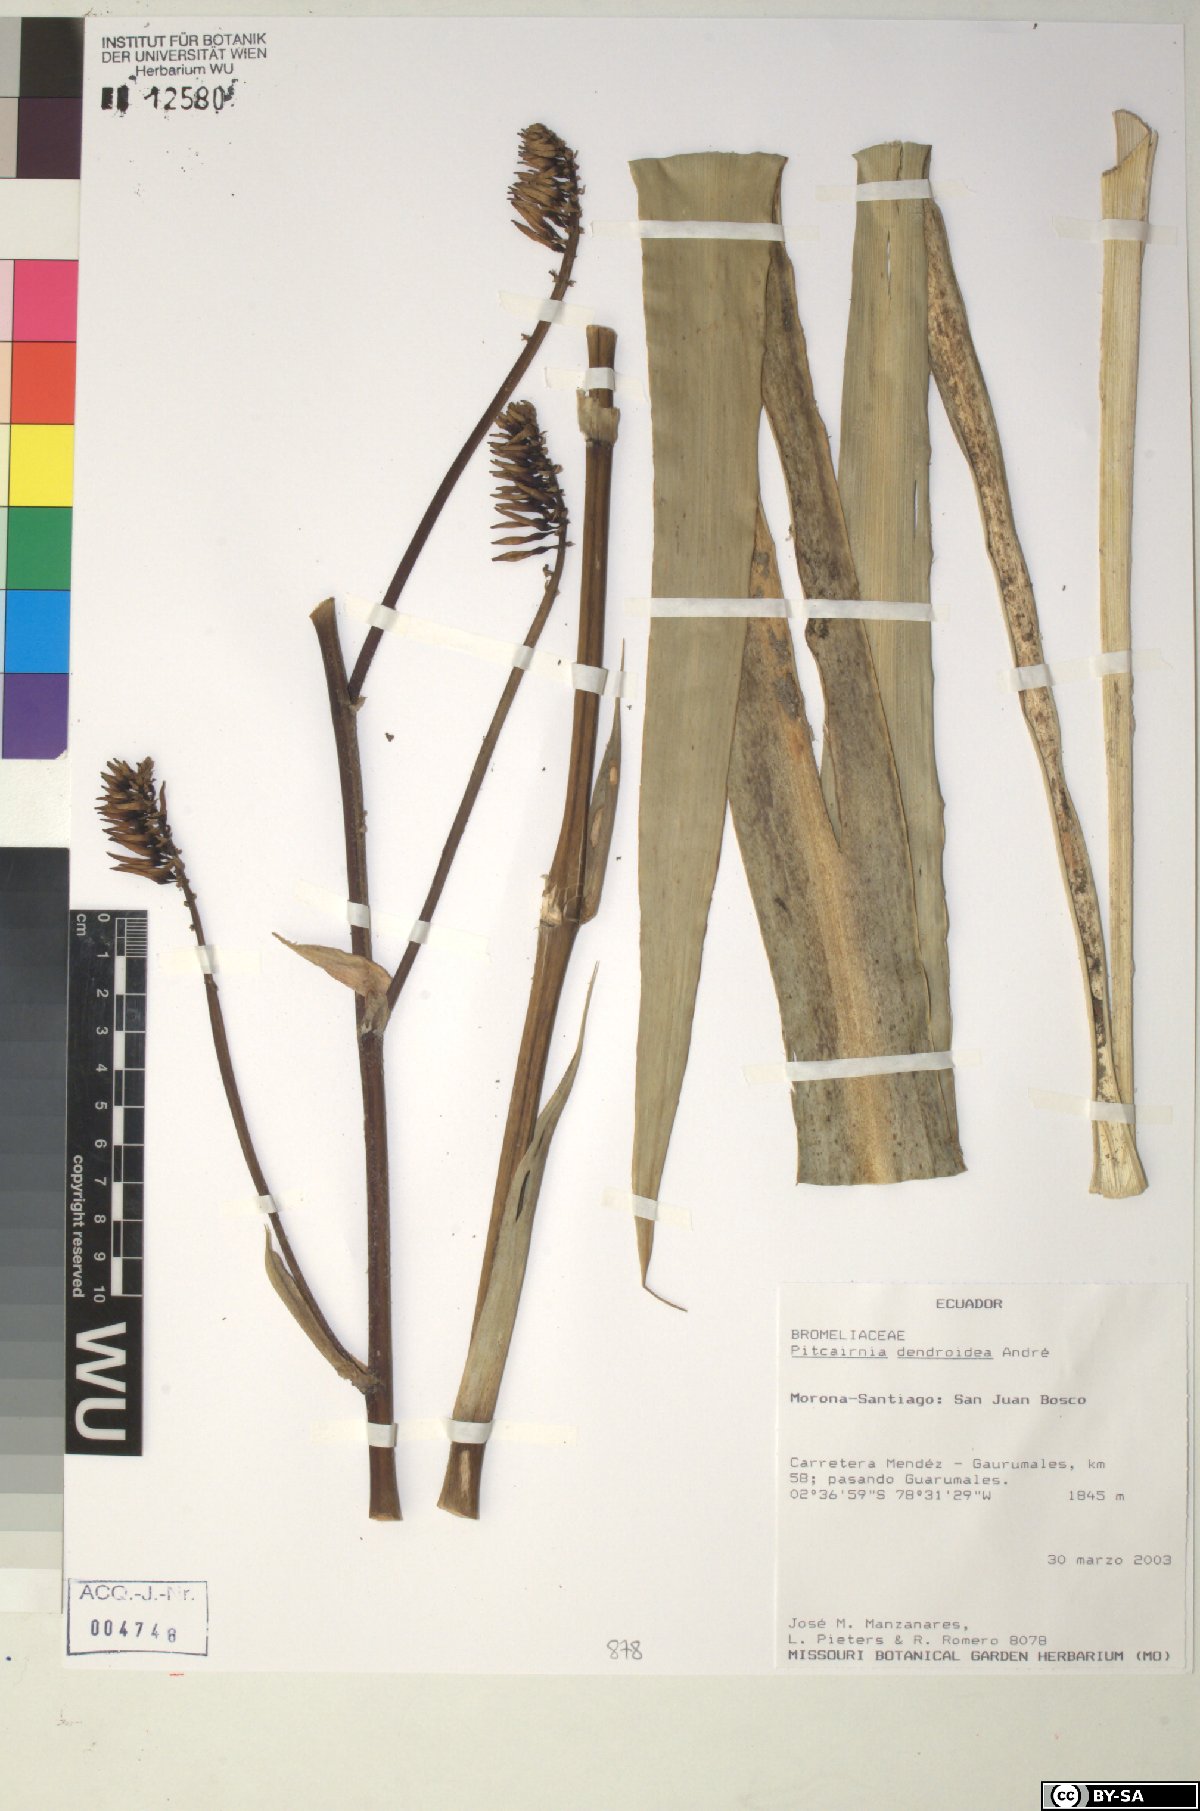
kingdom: Plantae
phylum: Tracheophyta
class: Liliopsida
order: Poales
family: Bromeliaceae
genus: Pitcairnia
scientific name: Pitcairnia dendroidea
